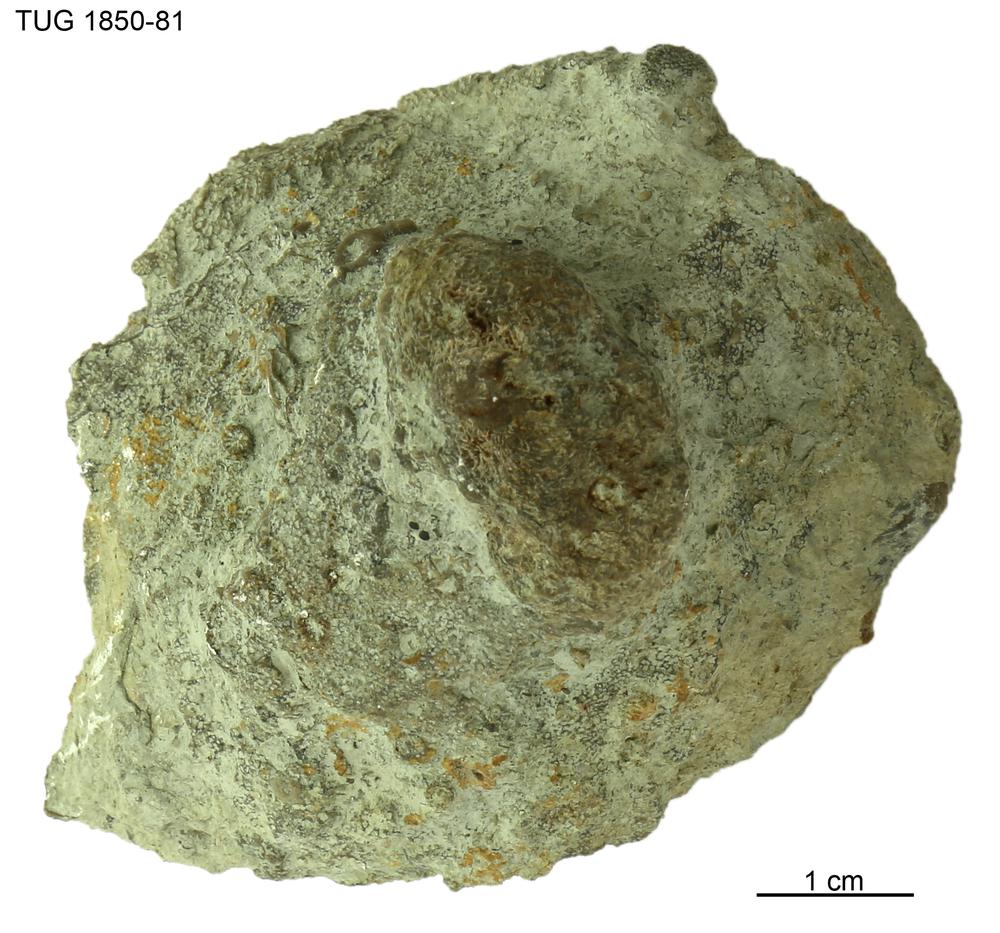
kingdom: Animalia
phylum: Porifera
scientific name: Porifera
